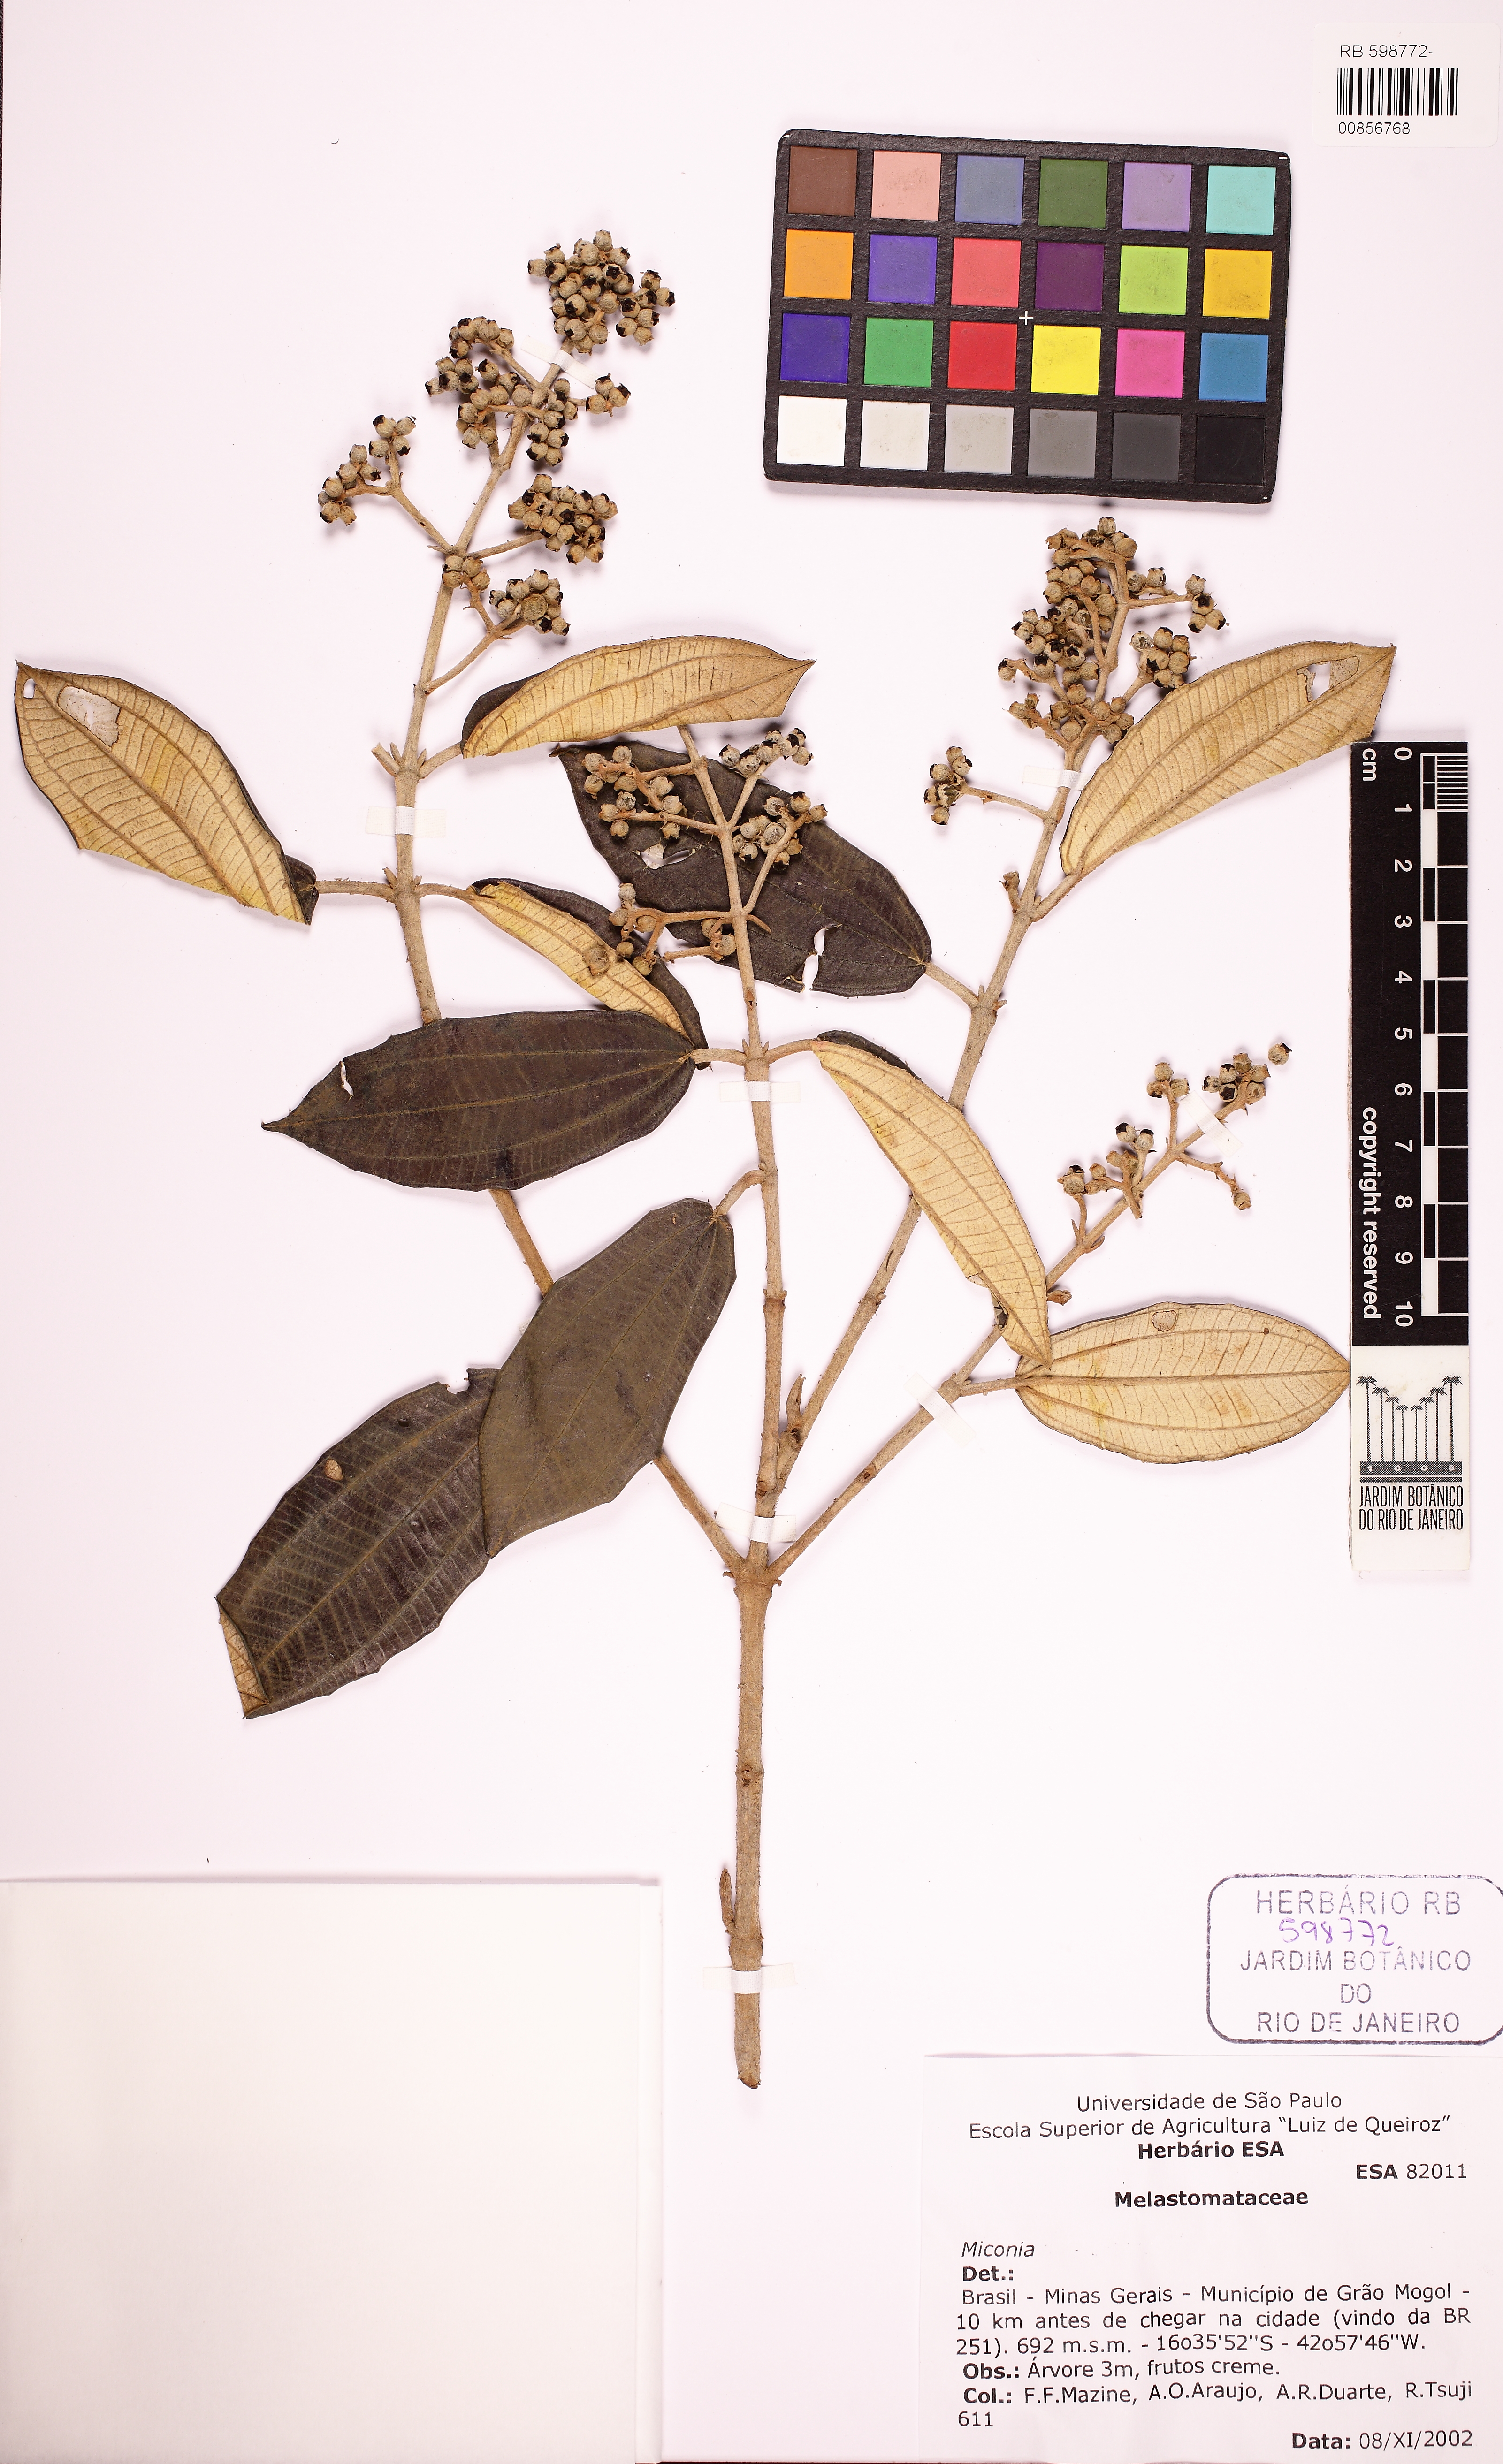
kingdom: Plantae
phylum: Tracheophyta
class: Magnoliopsida
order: Myrtales
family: Melastomataceae
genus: Miconia
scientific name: Miconia albicans
